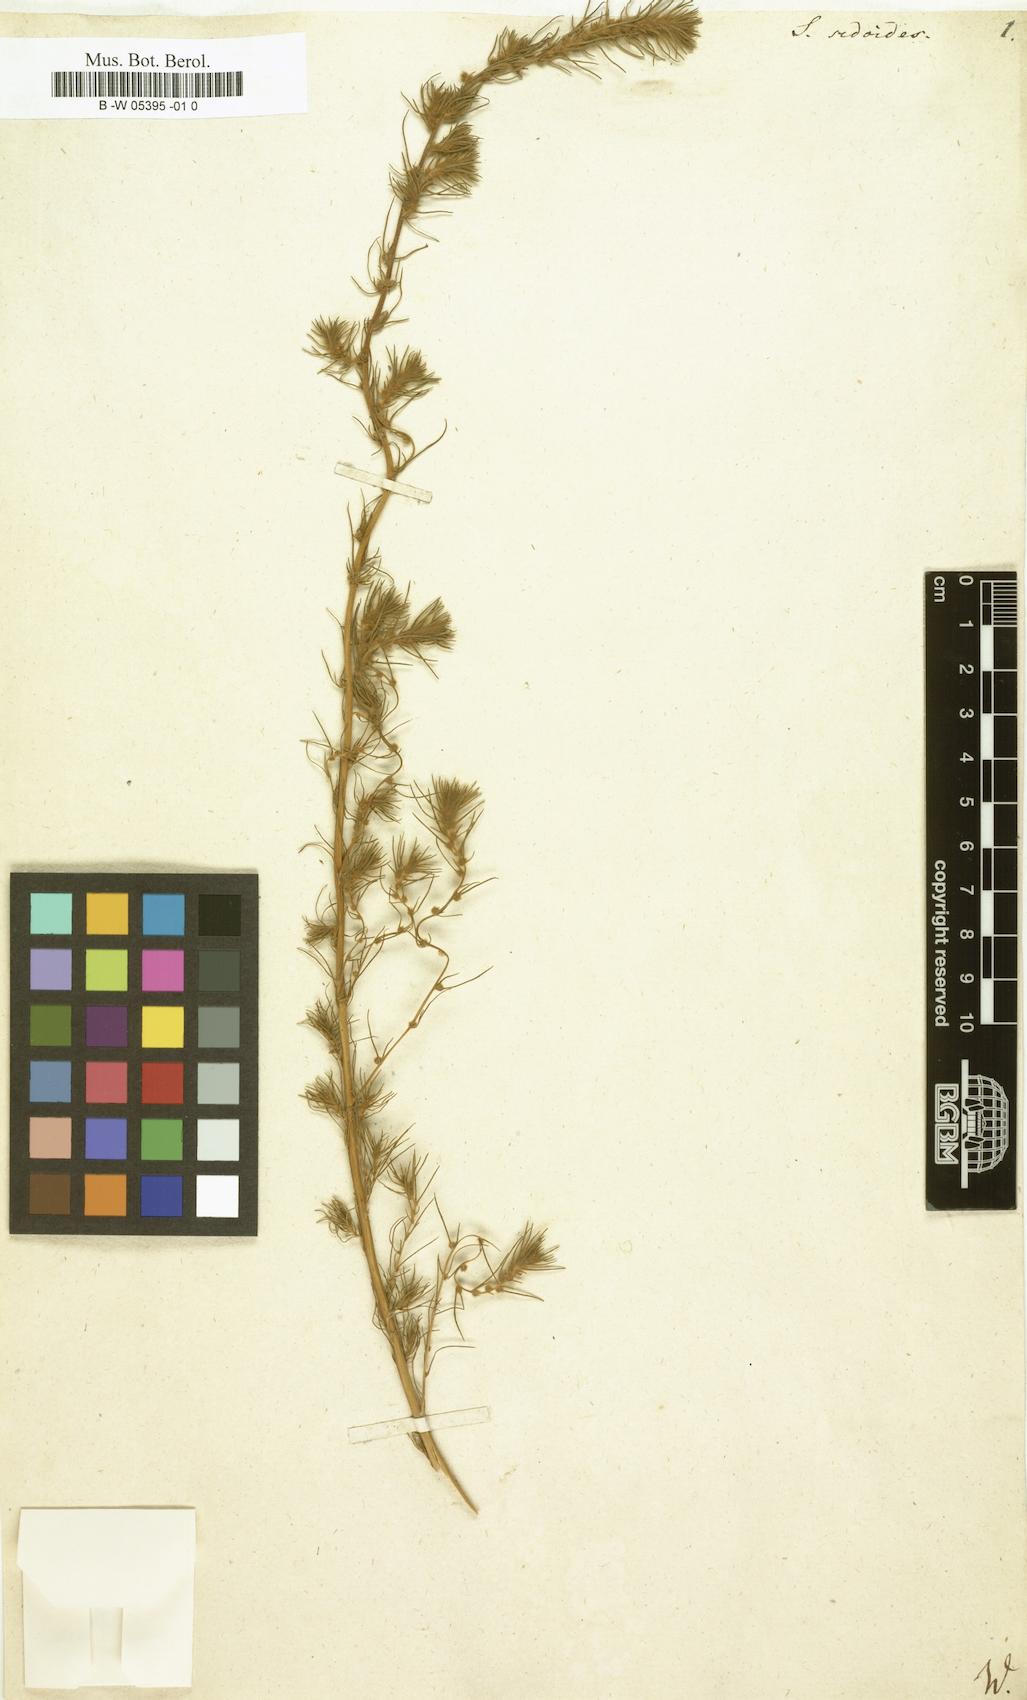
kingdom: Plantae
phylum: Tracheophyta
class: Magnoliopsida
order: Caryophyllales
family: Amaranthaceae
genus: Suaeda
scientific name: Suaeda maritima
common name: Annual sea-blite
